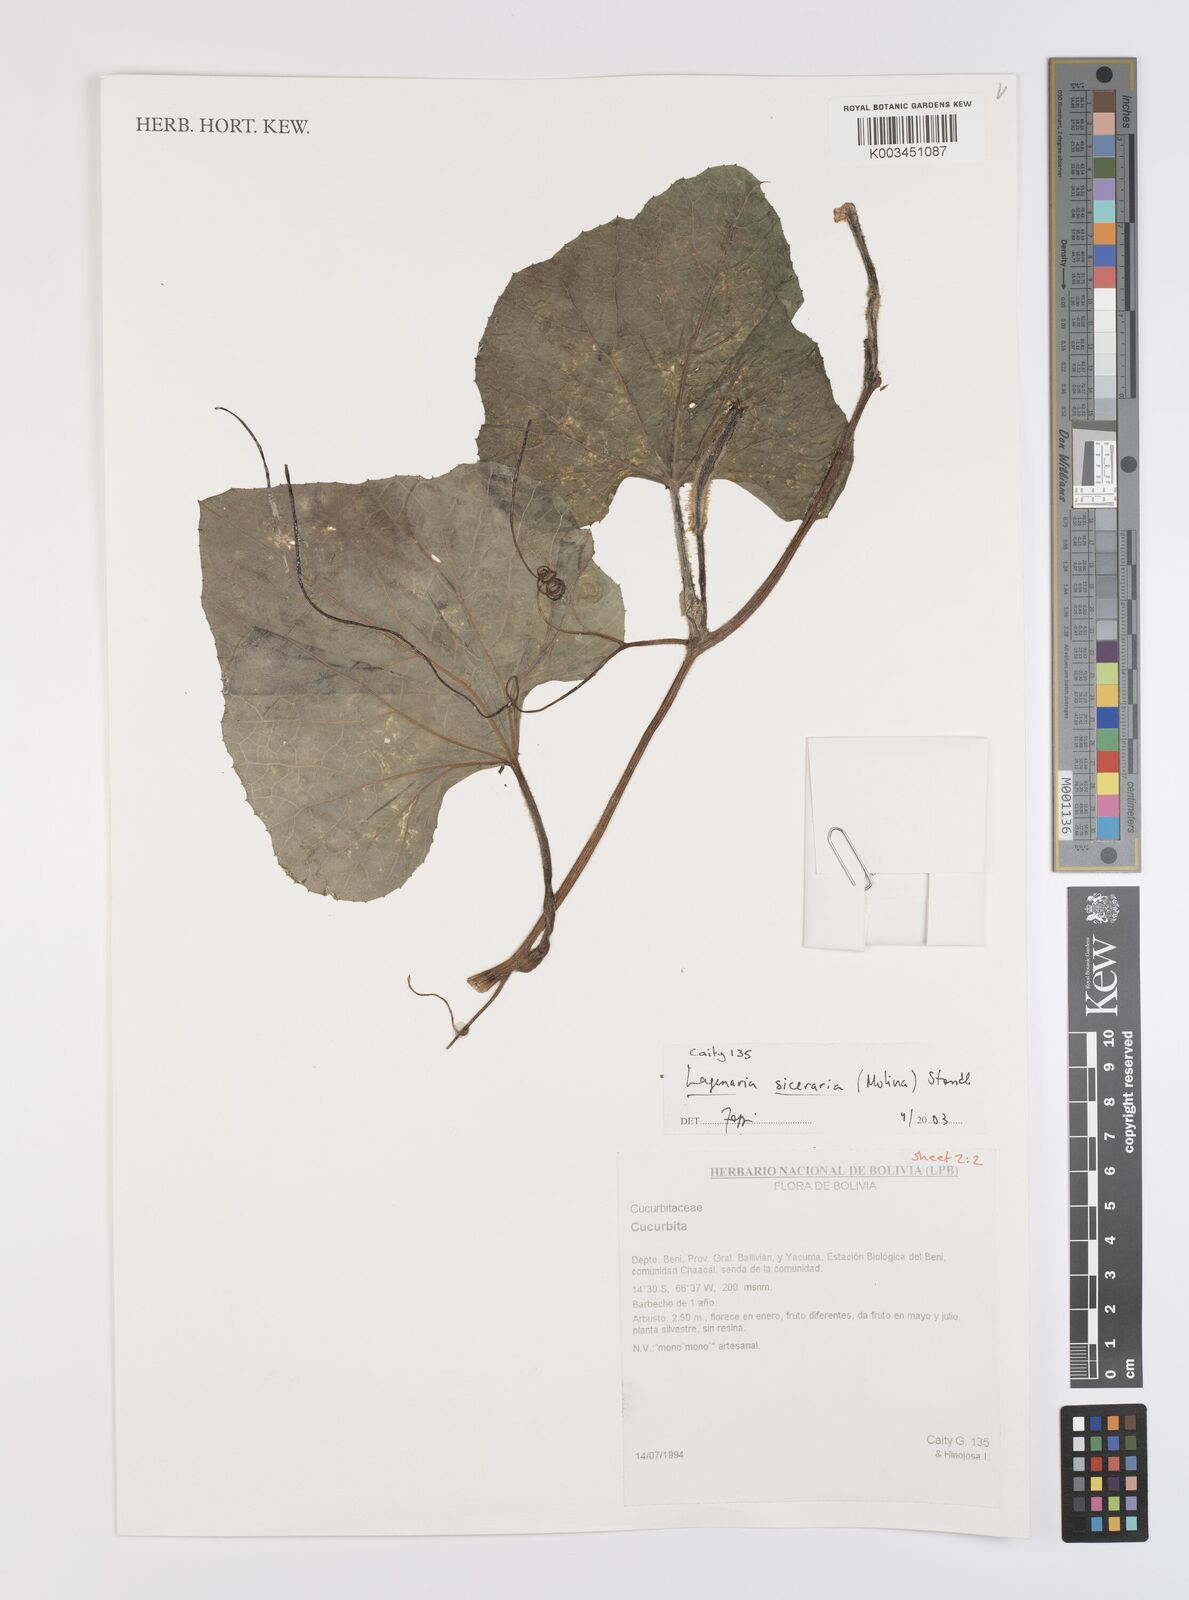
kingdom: Plantae
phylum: Tracheophyta
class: Magnoliopsida
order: Cucurbitales
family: Cucurbitaceae
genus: Lagenaria
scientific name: Lagenaria siceraria
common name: Bottle gourd
